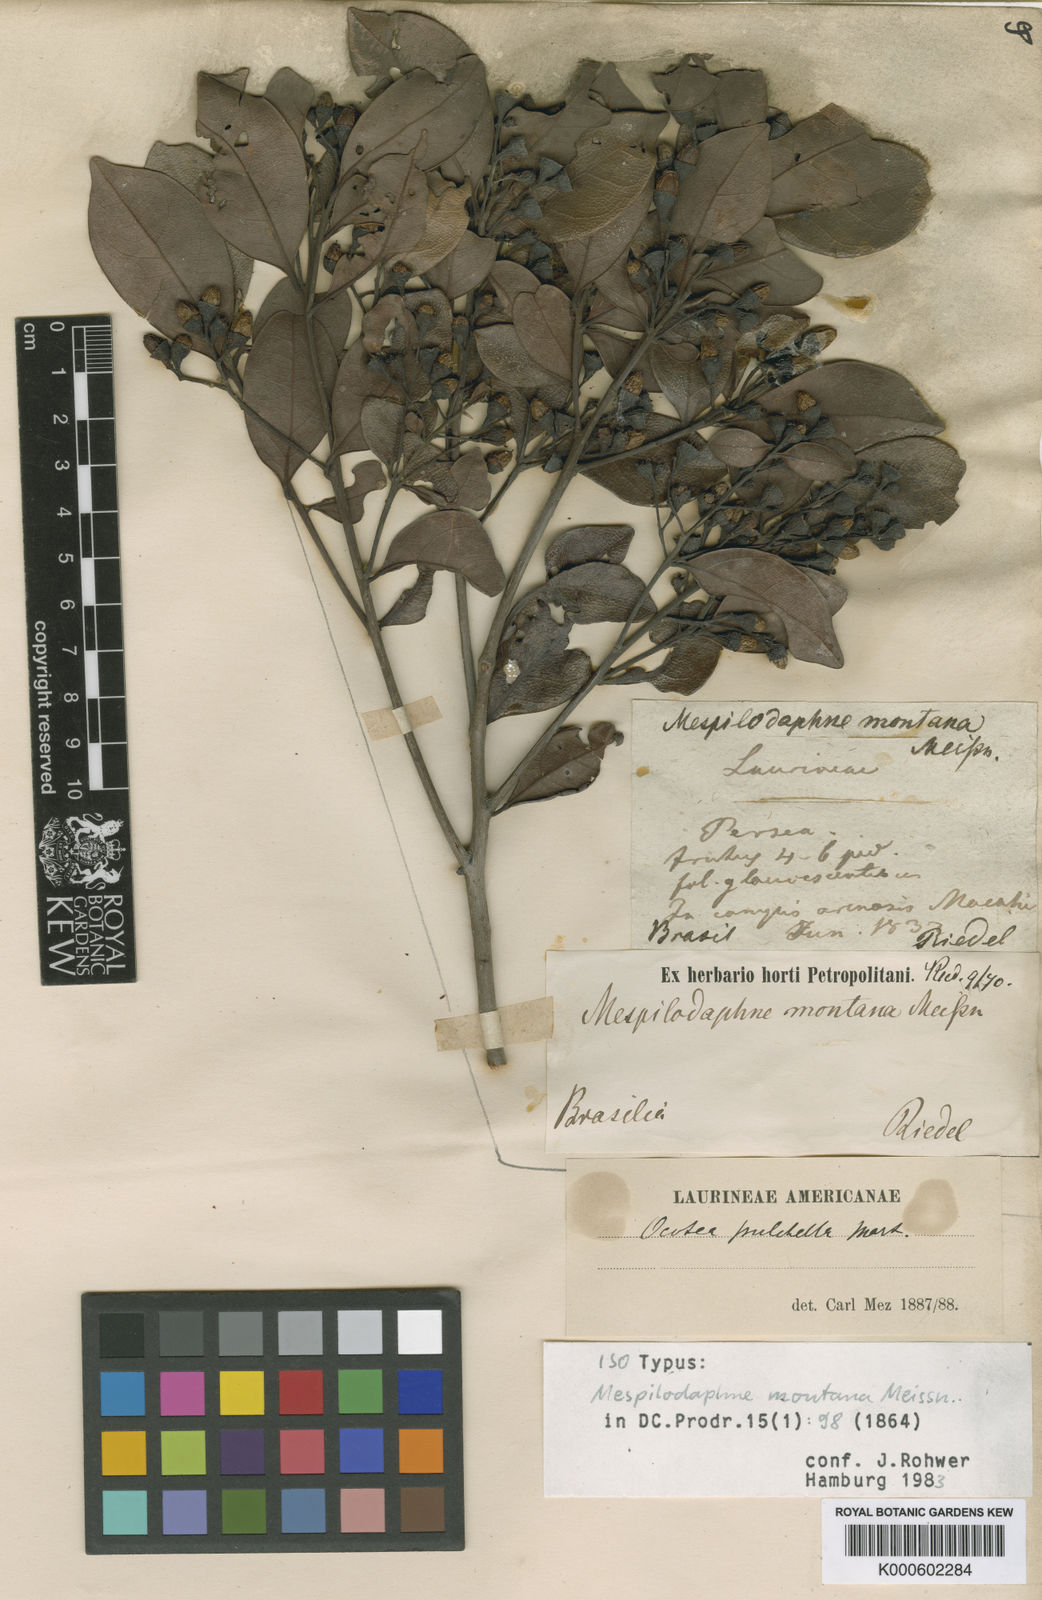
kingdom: Plantae
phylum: Tracheophyta
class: Magnoliopsida
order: Laurales
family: Lauraceae
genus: Mespilodaphne
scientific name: Mespilodaphne pulchella
